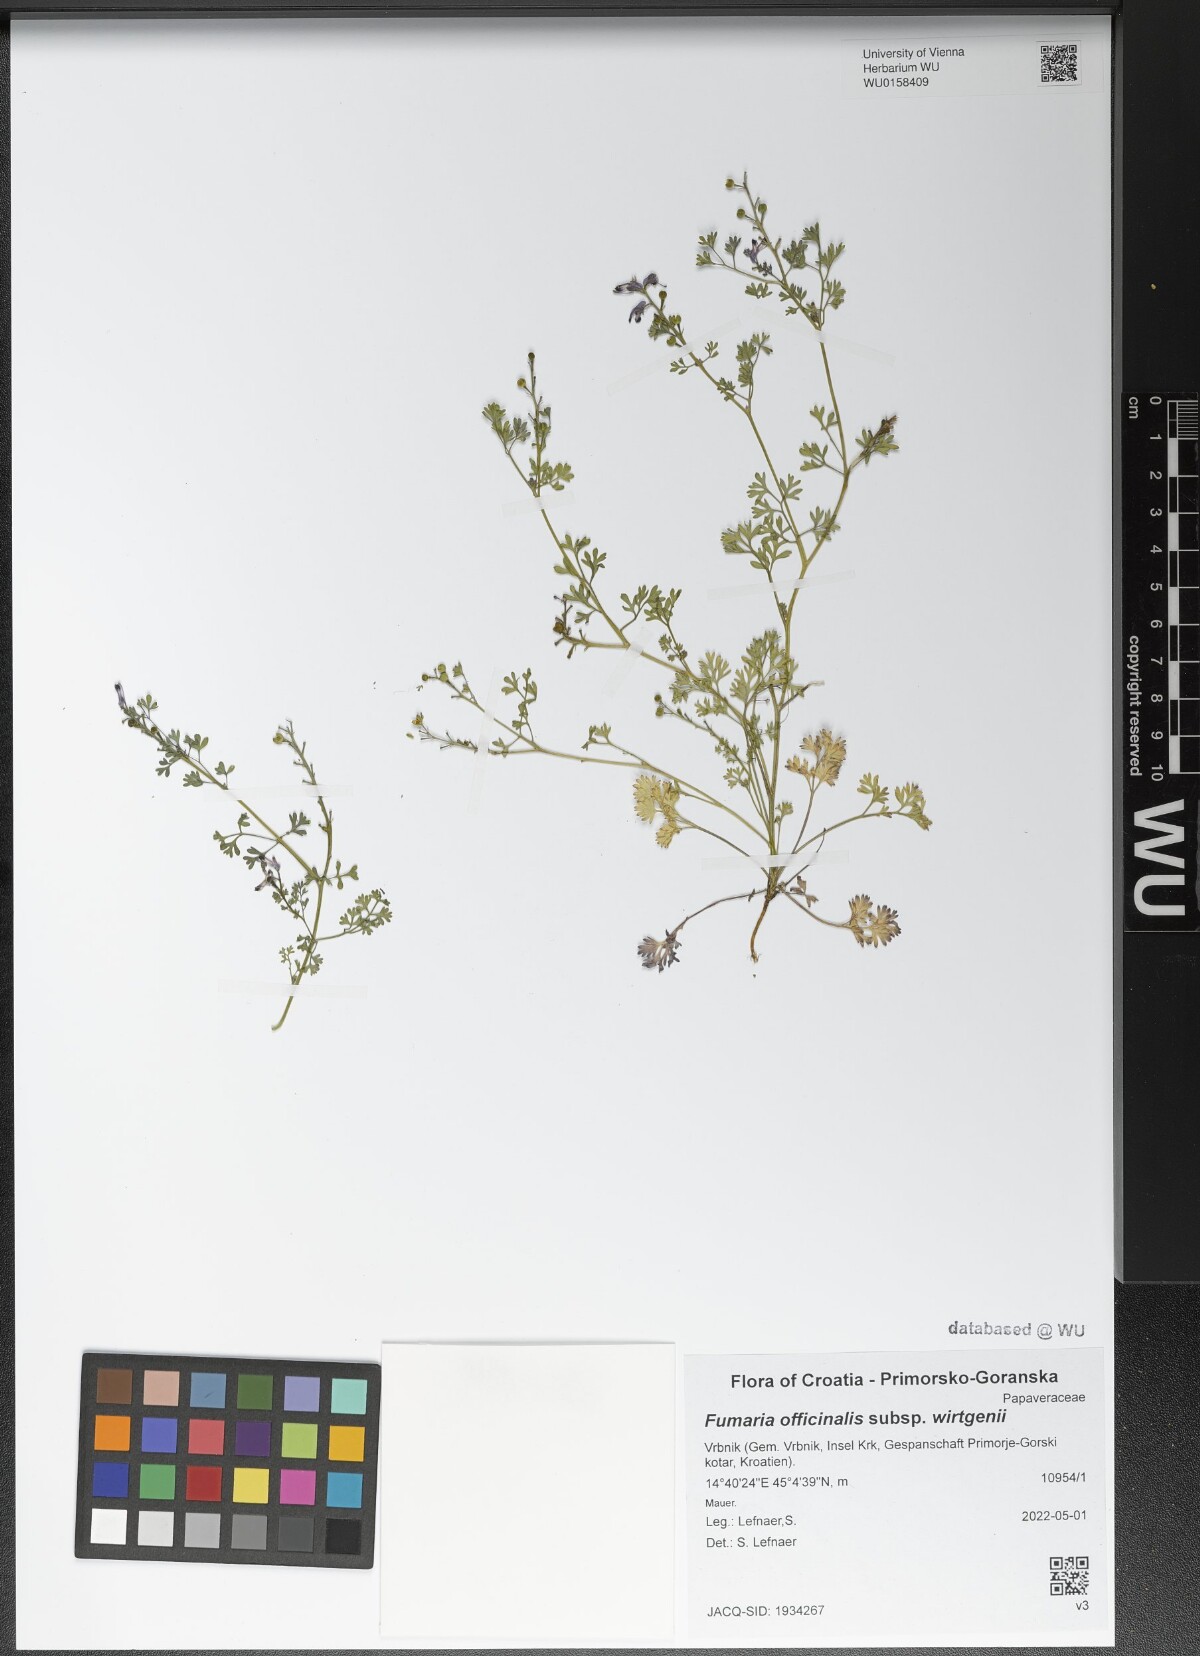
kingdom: Plantae
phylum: Tracheophyta
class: Magnoliopsida
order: Ranunculales
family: Papaveraceae
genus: Fumaria
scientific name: Fumaria wirtgenii
